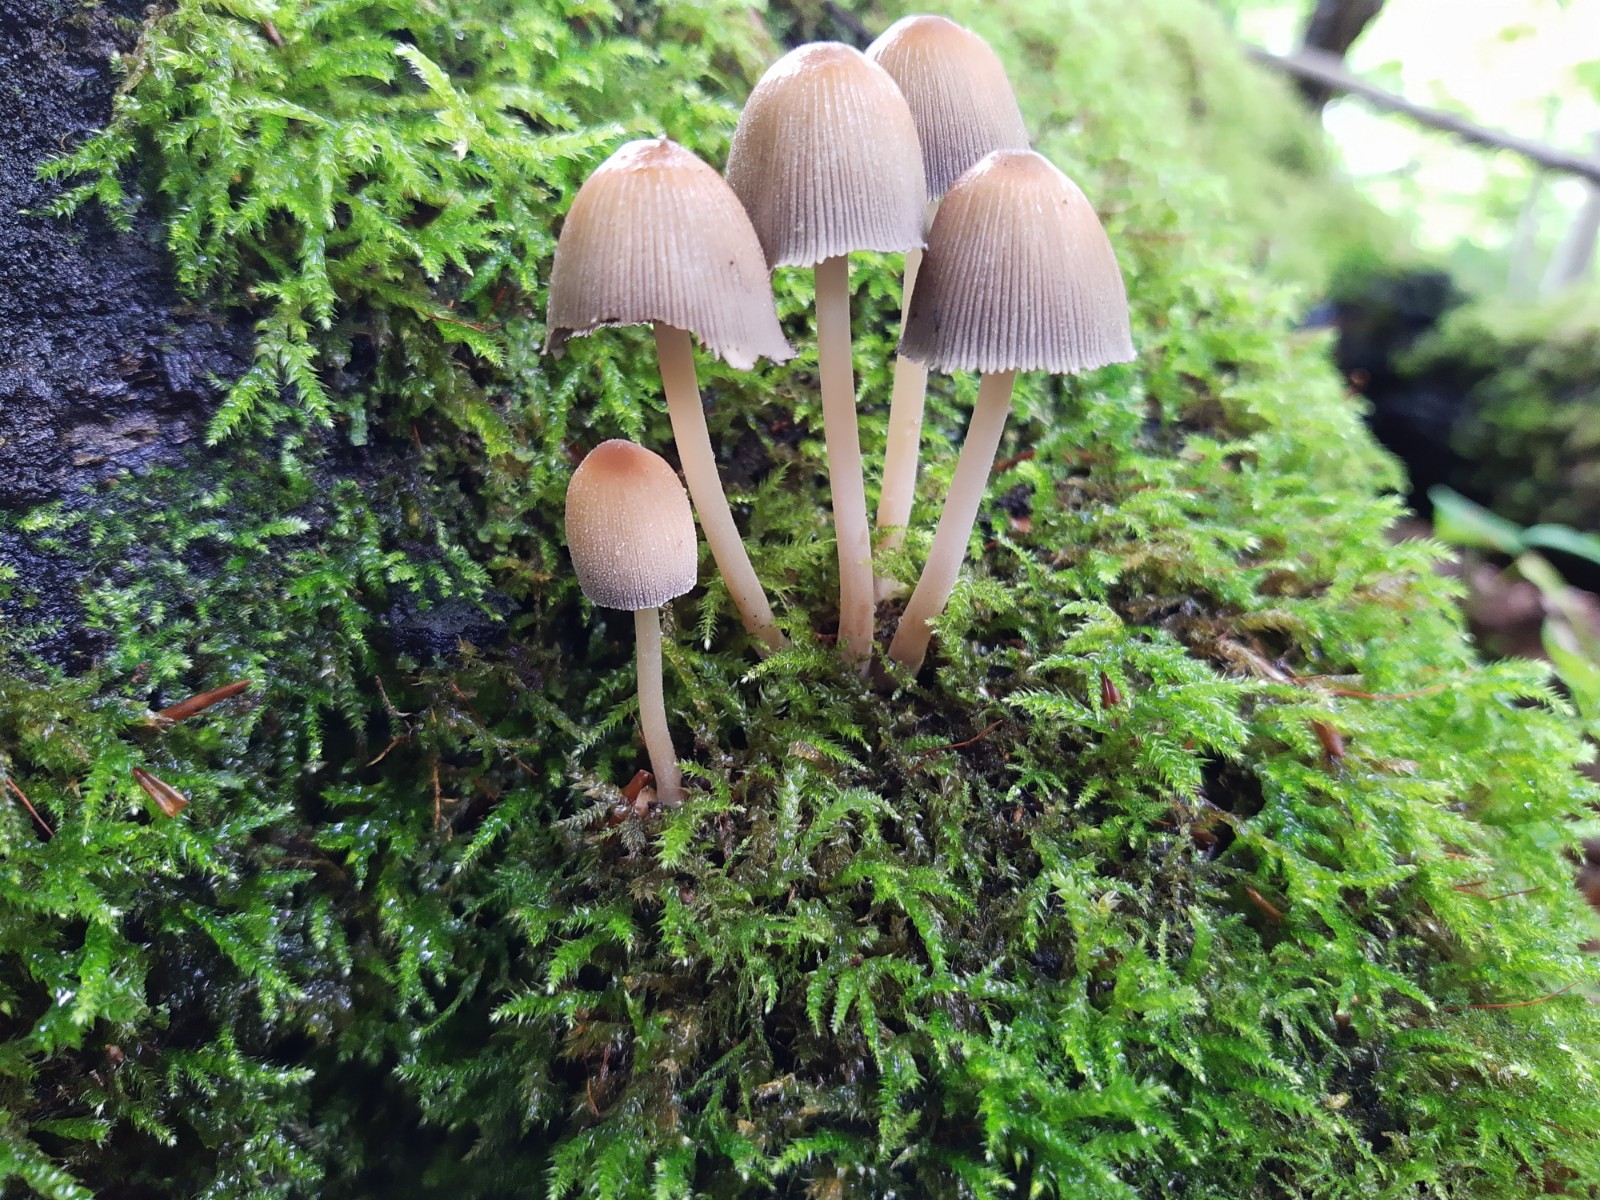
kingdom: Fungi
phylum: Basidiomycota
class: Agaricomycetes
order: Agaricales
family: Psathyrellaceae
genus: Coprinellus
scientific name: Coprinellus
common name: blækhat
